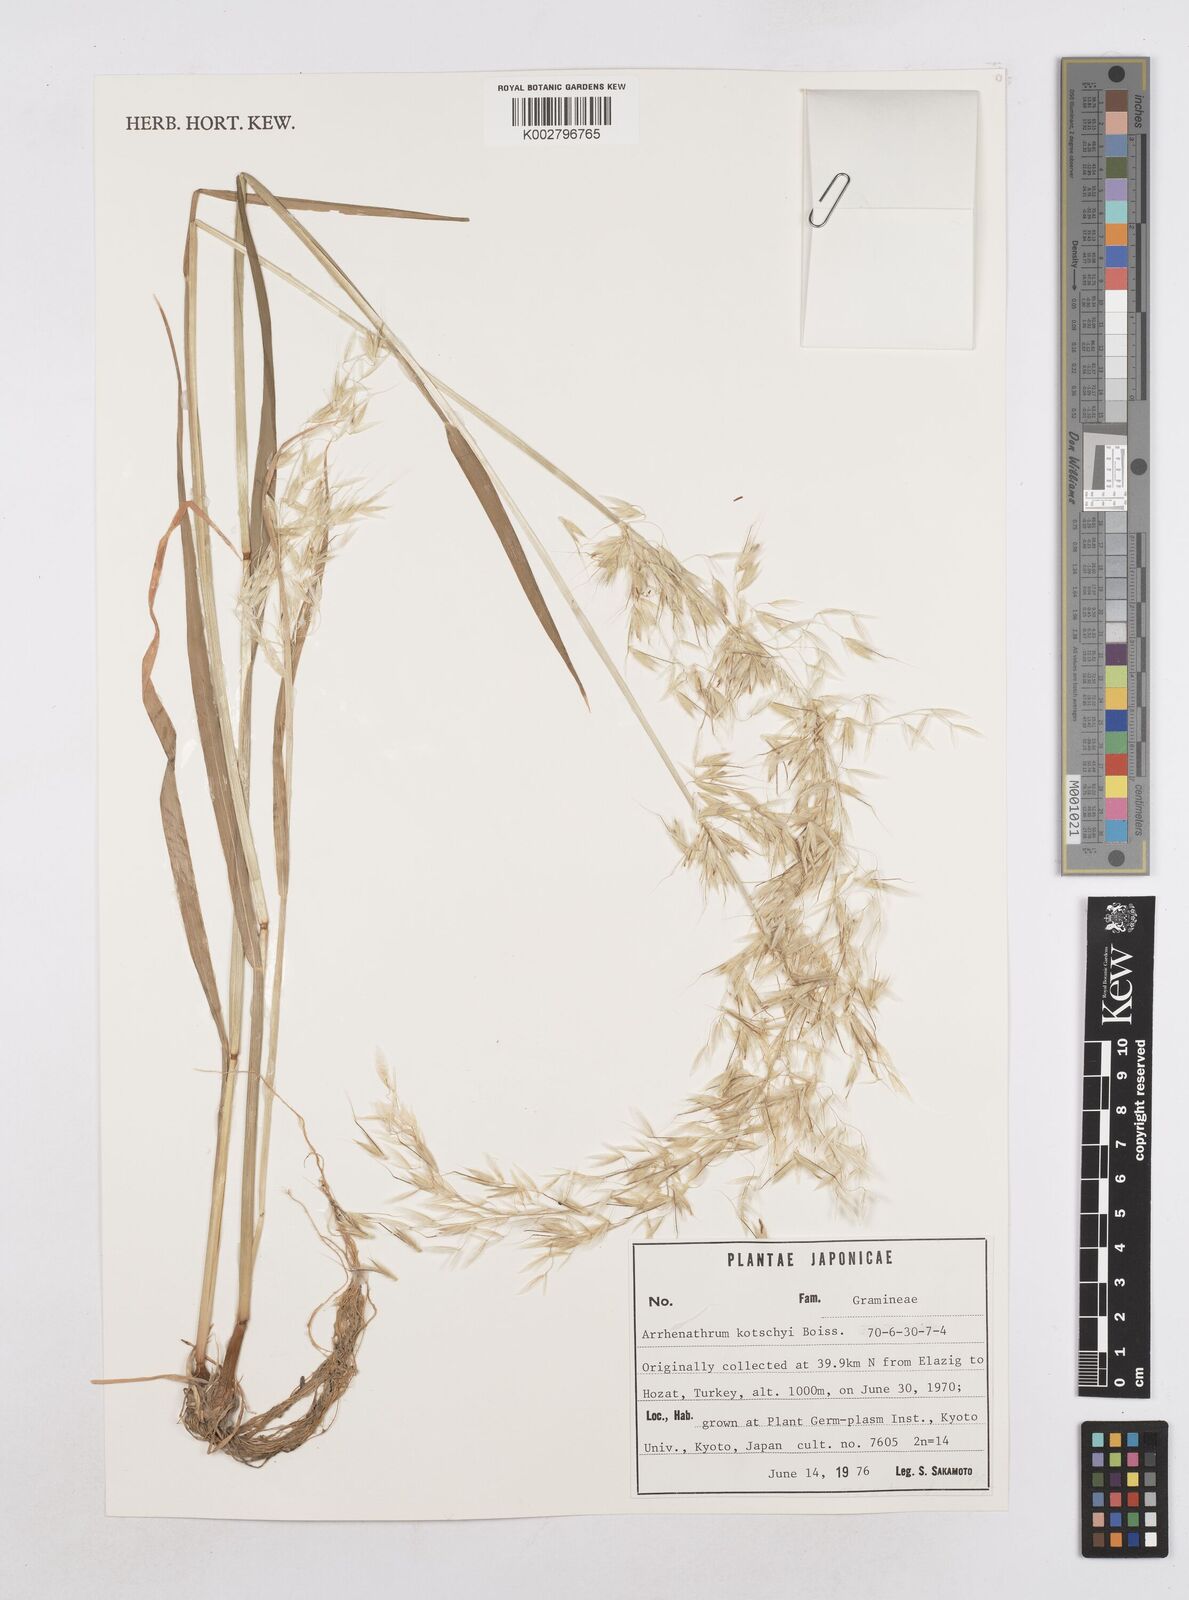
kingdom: Plantae
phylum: Tracheophyta
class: Liliopsida
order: Poales
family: Poaceae
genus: Arrhenatherum
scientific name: Arrhenatherum kotschyi
